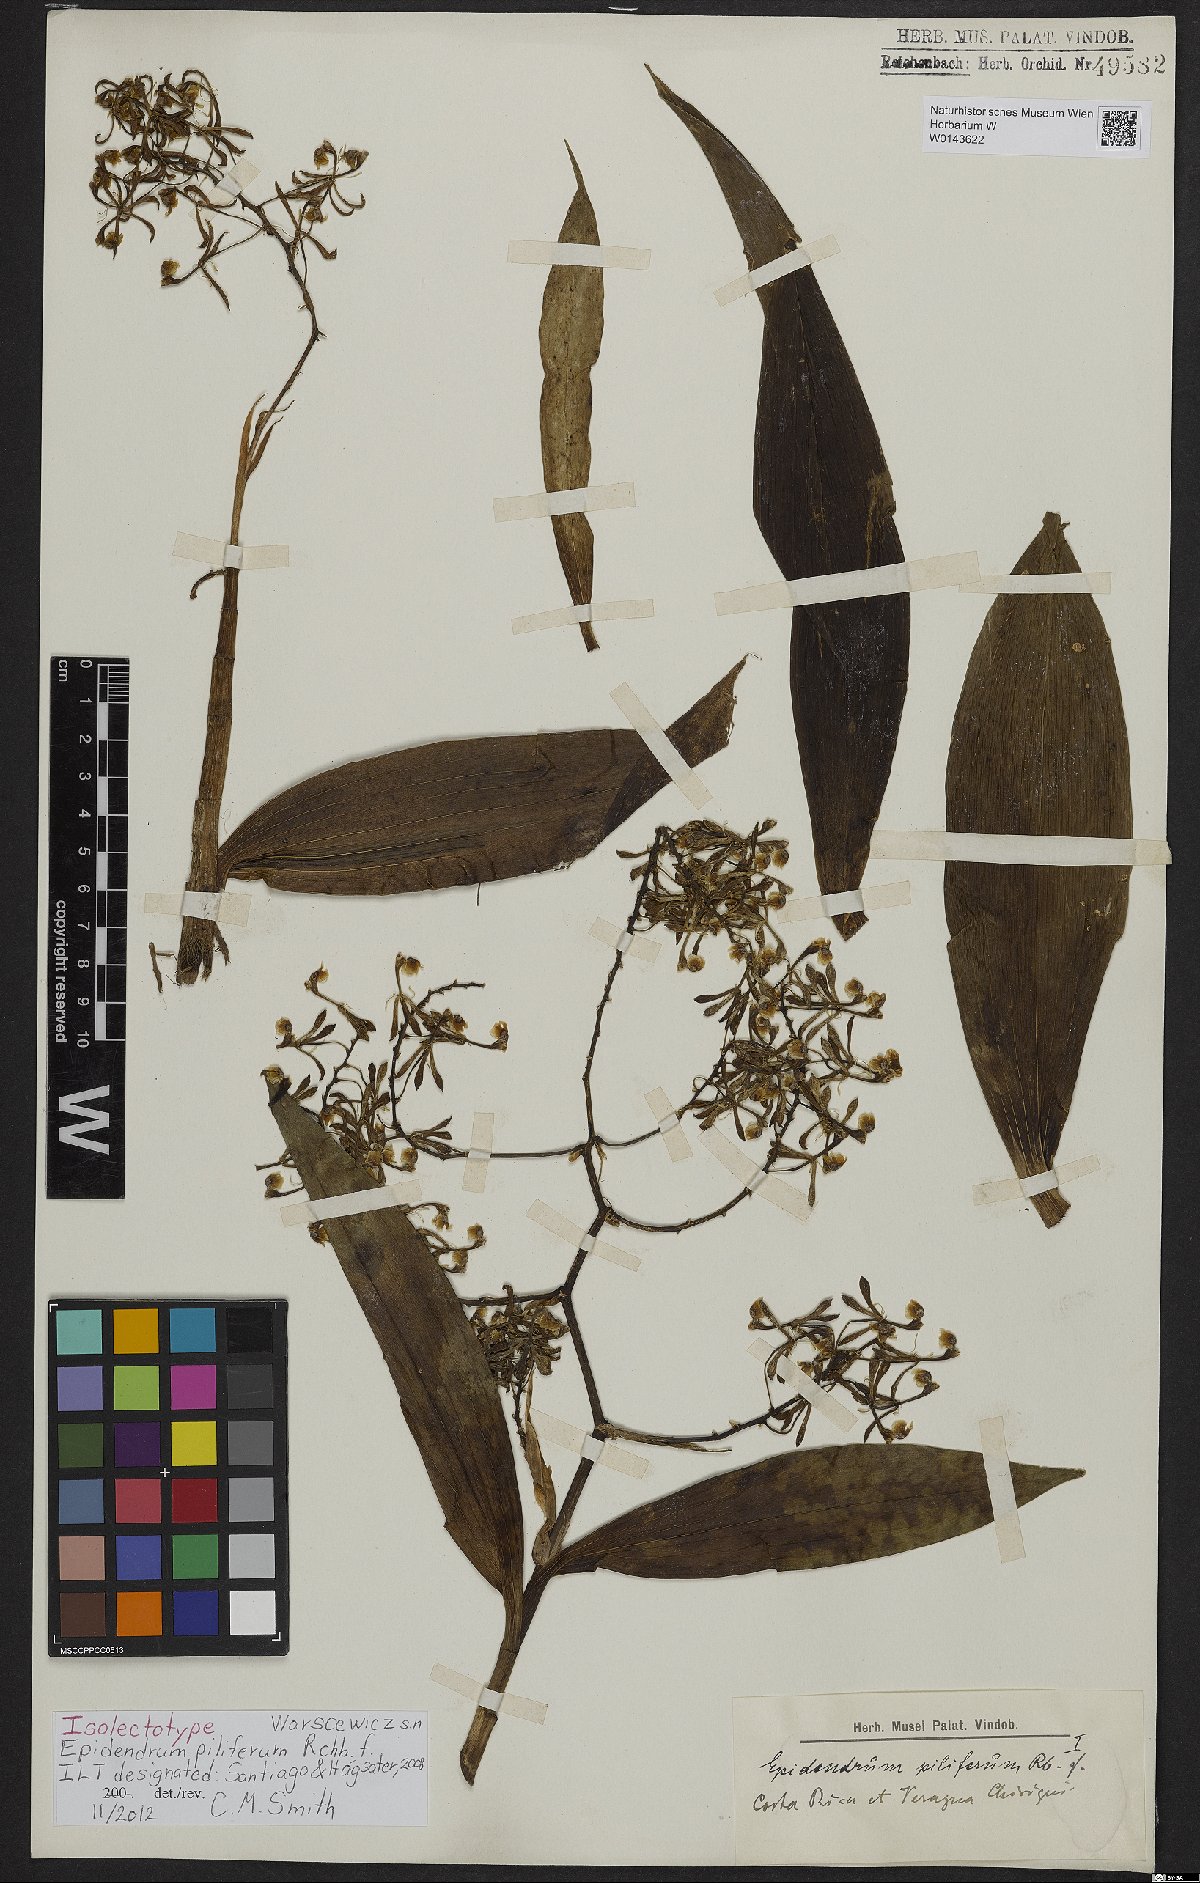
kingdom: Plantae
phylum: Tracheophyta
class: Liliopsida
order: Asparagales
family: Orchidaceae
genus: Epidendrum
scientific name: Epidendrum piliferum
